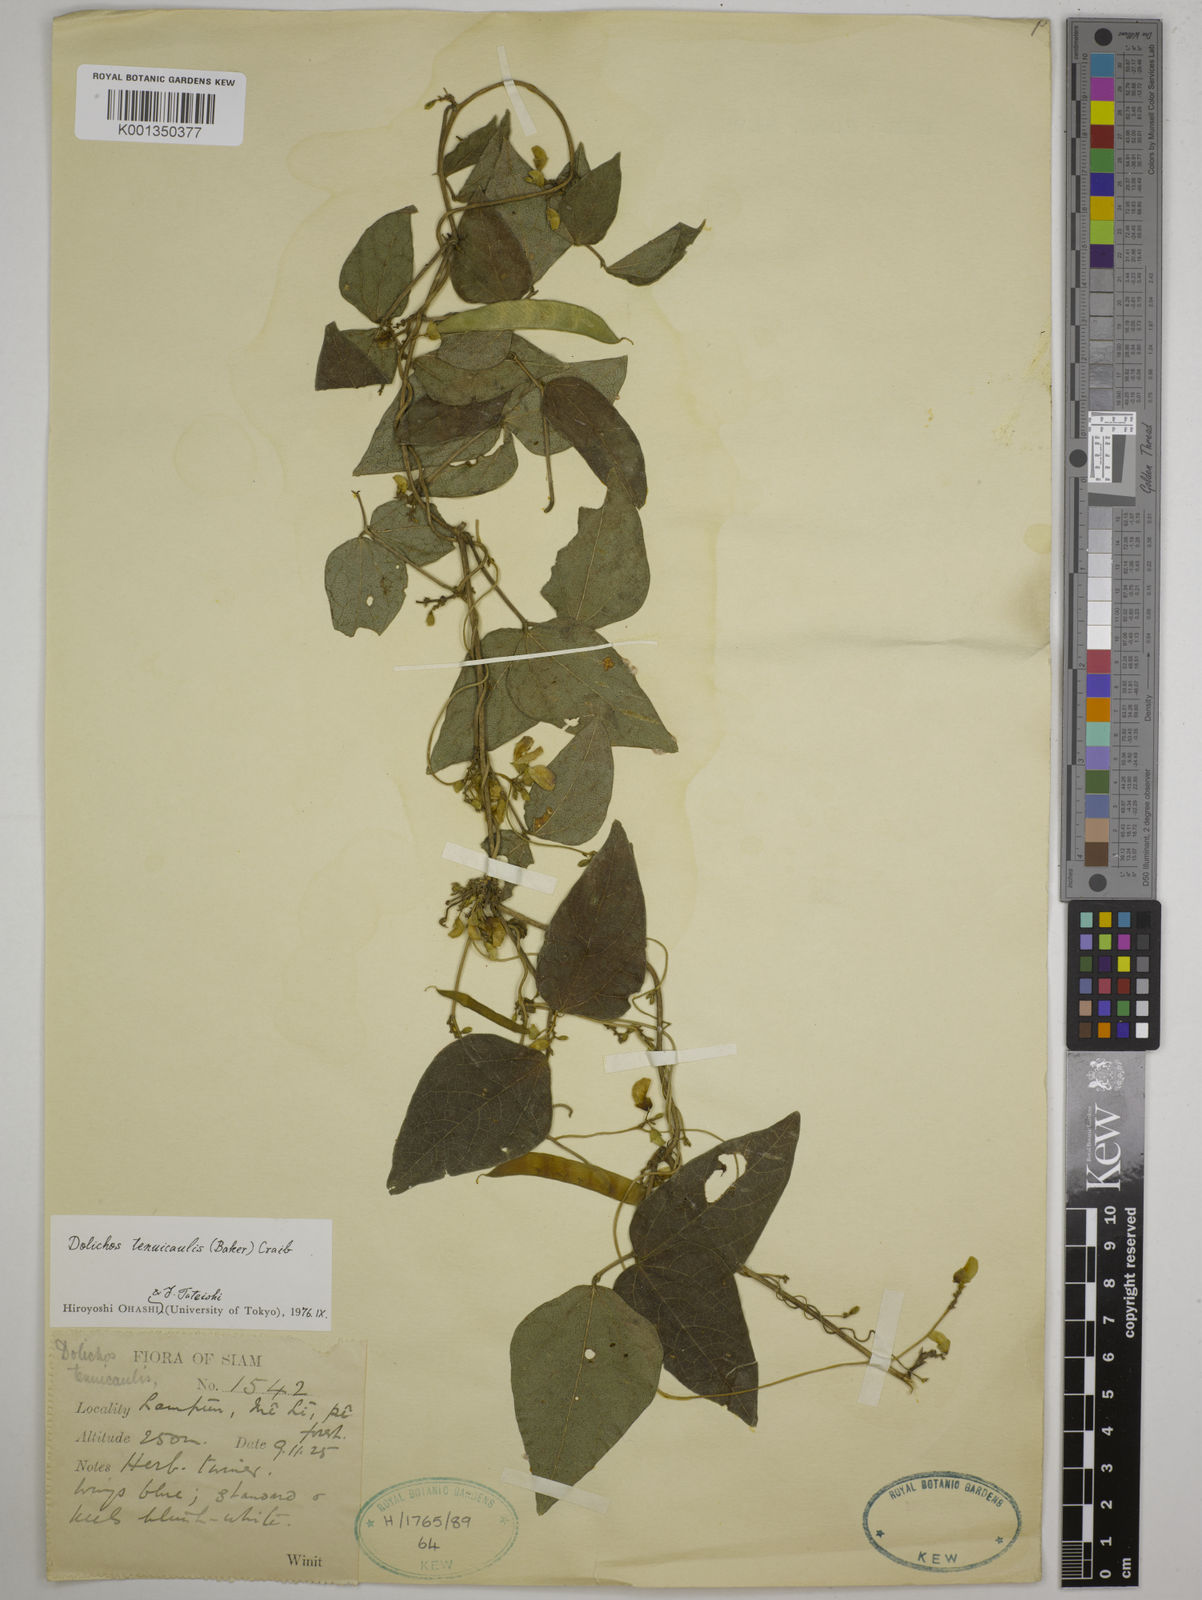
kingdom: Plantae
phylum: Tracheophyta
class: Magnoliopsida
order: Fabales
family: Fabaceae
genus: Dolichos
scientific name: Dolichos tenuicaulis
